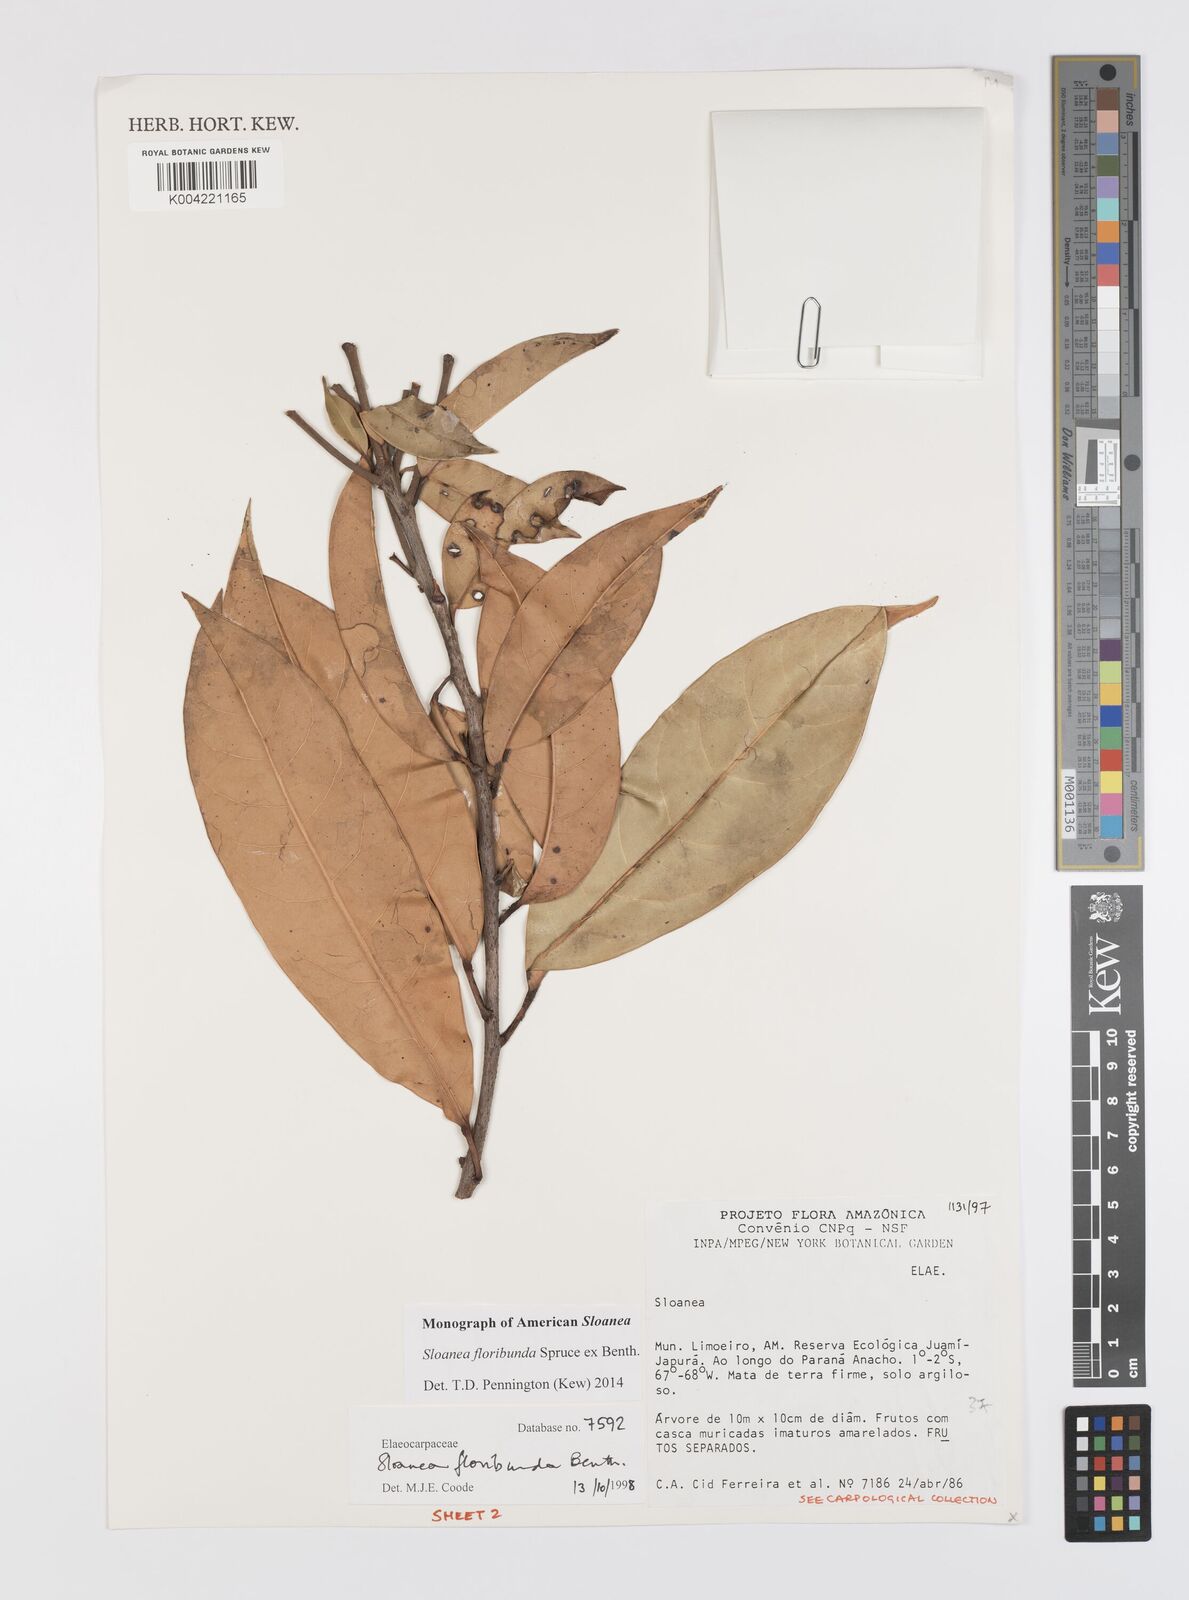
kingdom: Plantae
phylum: Tracheophyta
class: Magnoliopsida
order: Oxalidales
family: Elaeocarpaceae
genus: Sloanea
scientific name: Sloanea floribunda
